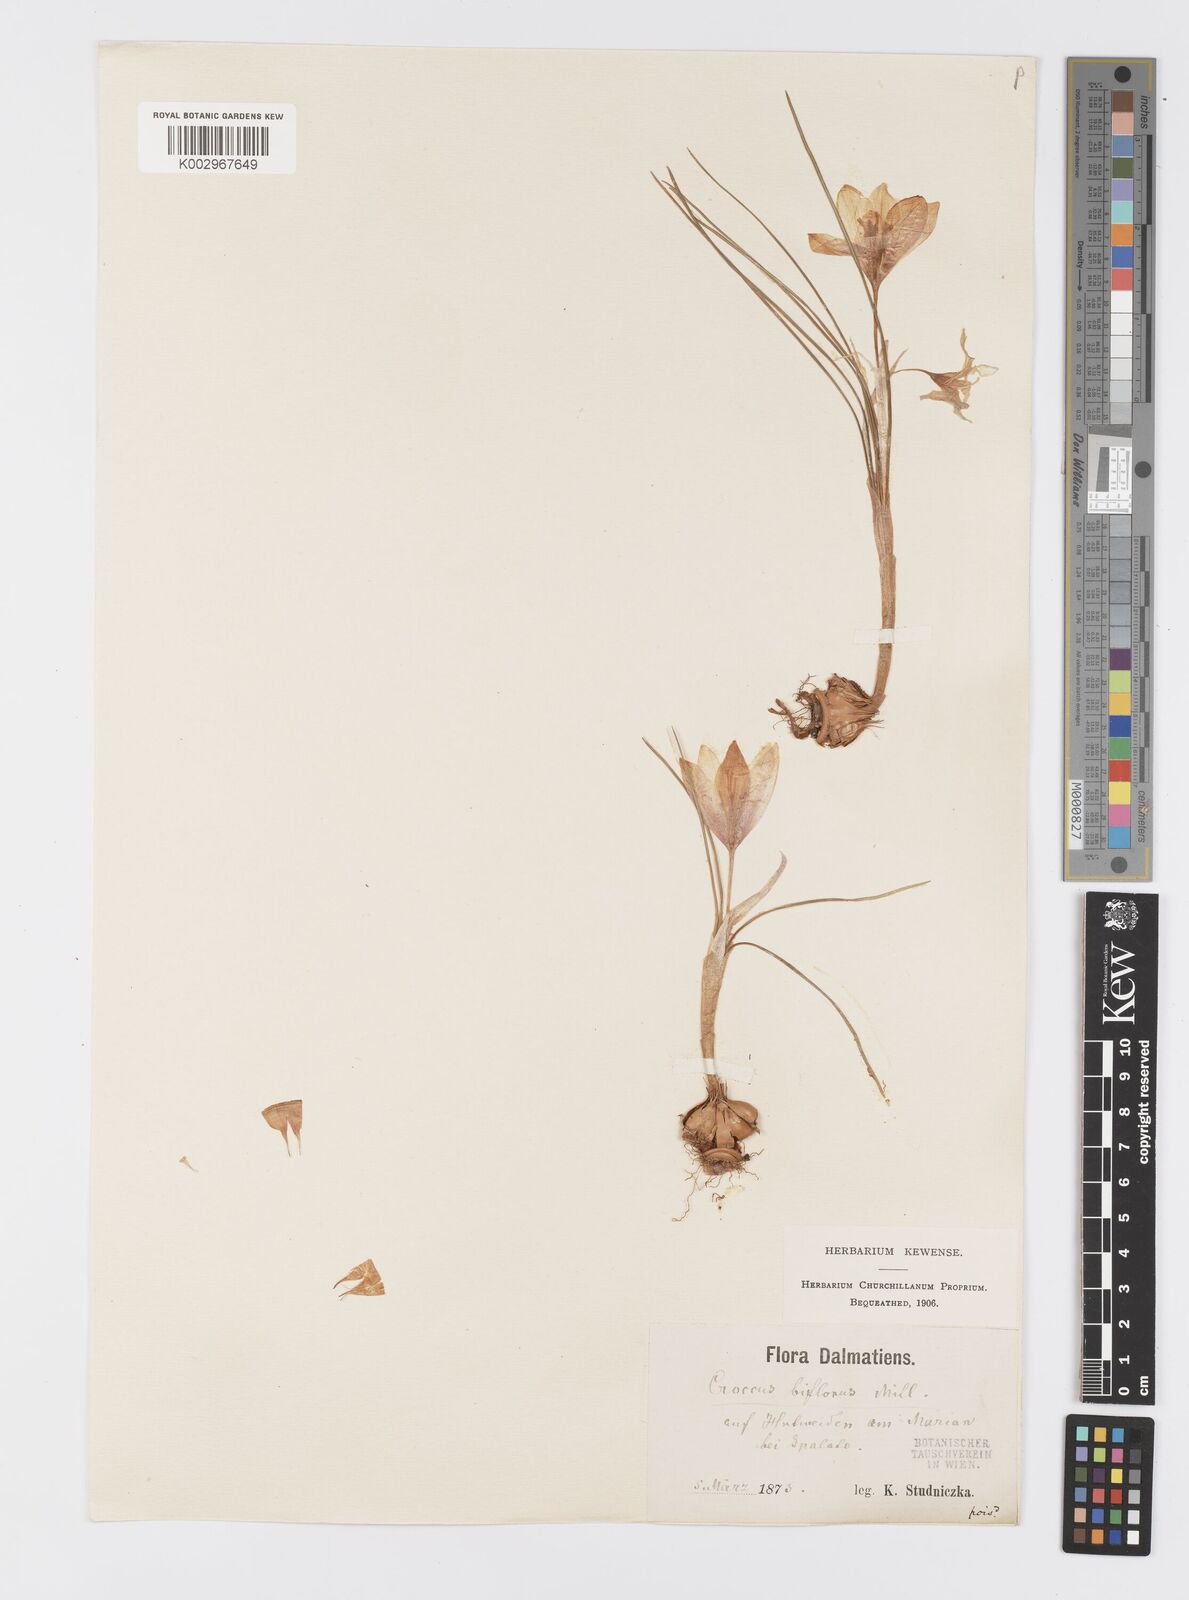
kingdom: Plantae
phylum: Tracheophyta
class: Liliopsida
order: Asparagales
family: Iridaceae
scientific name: Iridaceae
